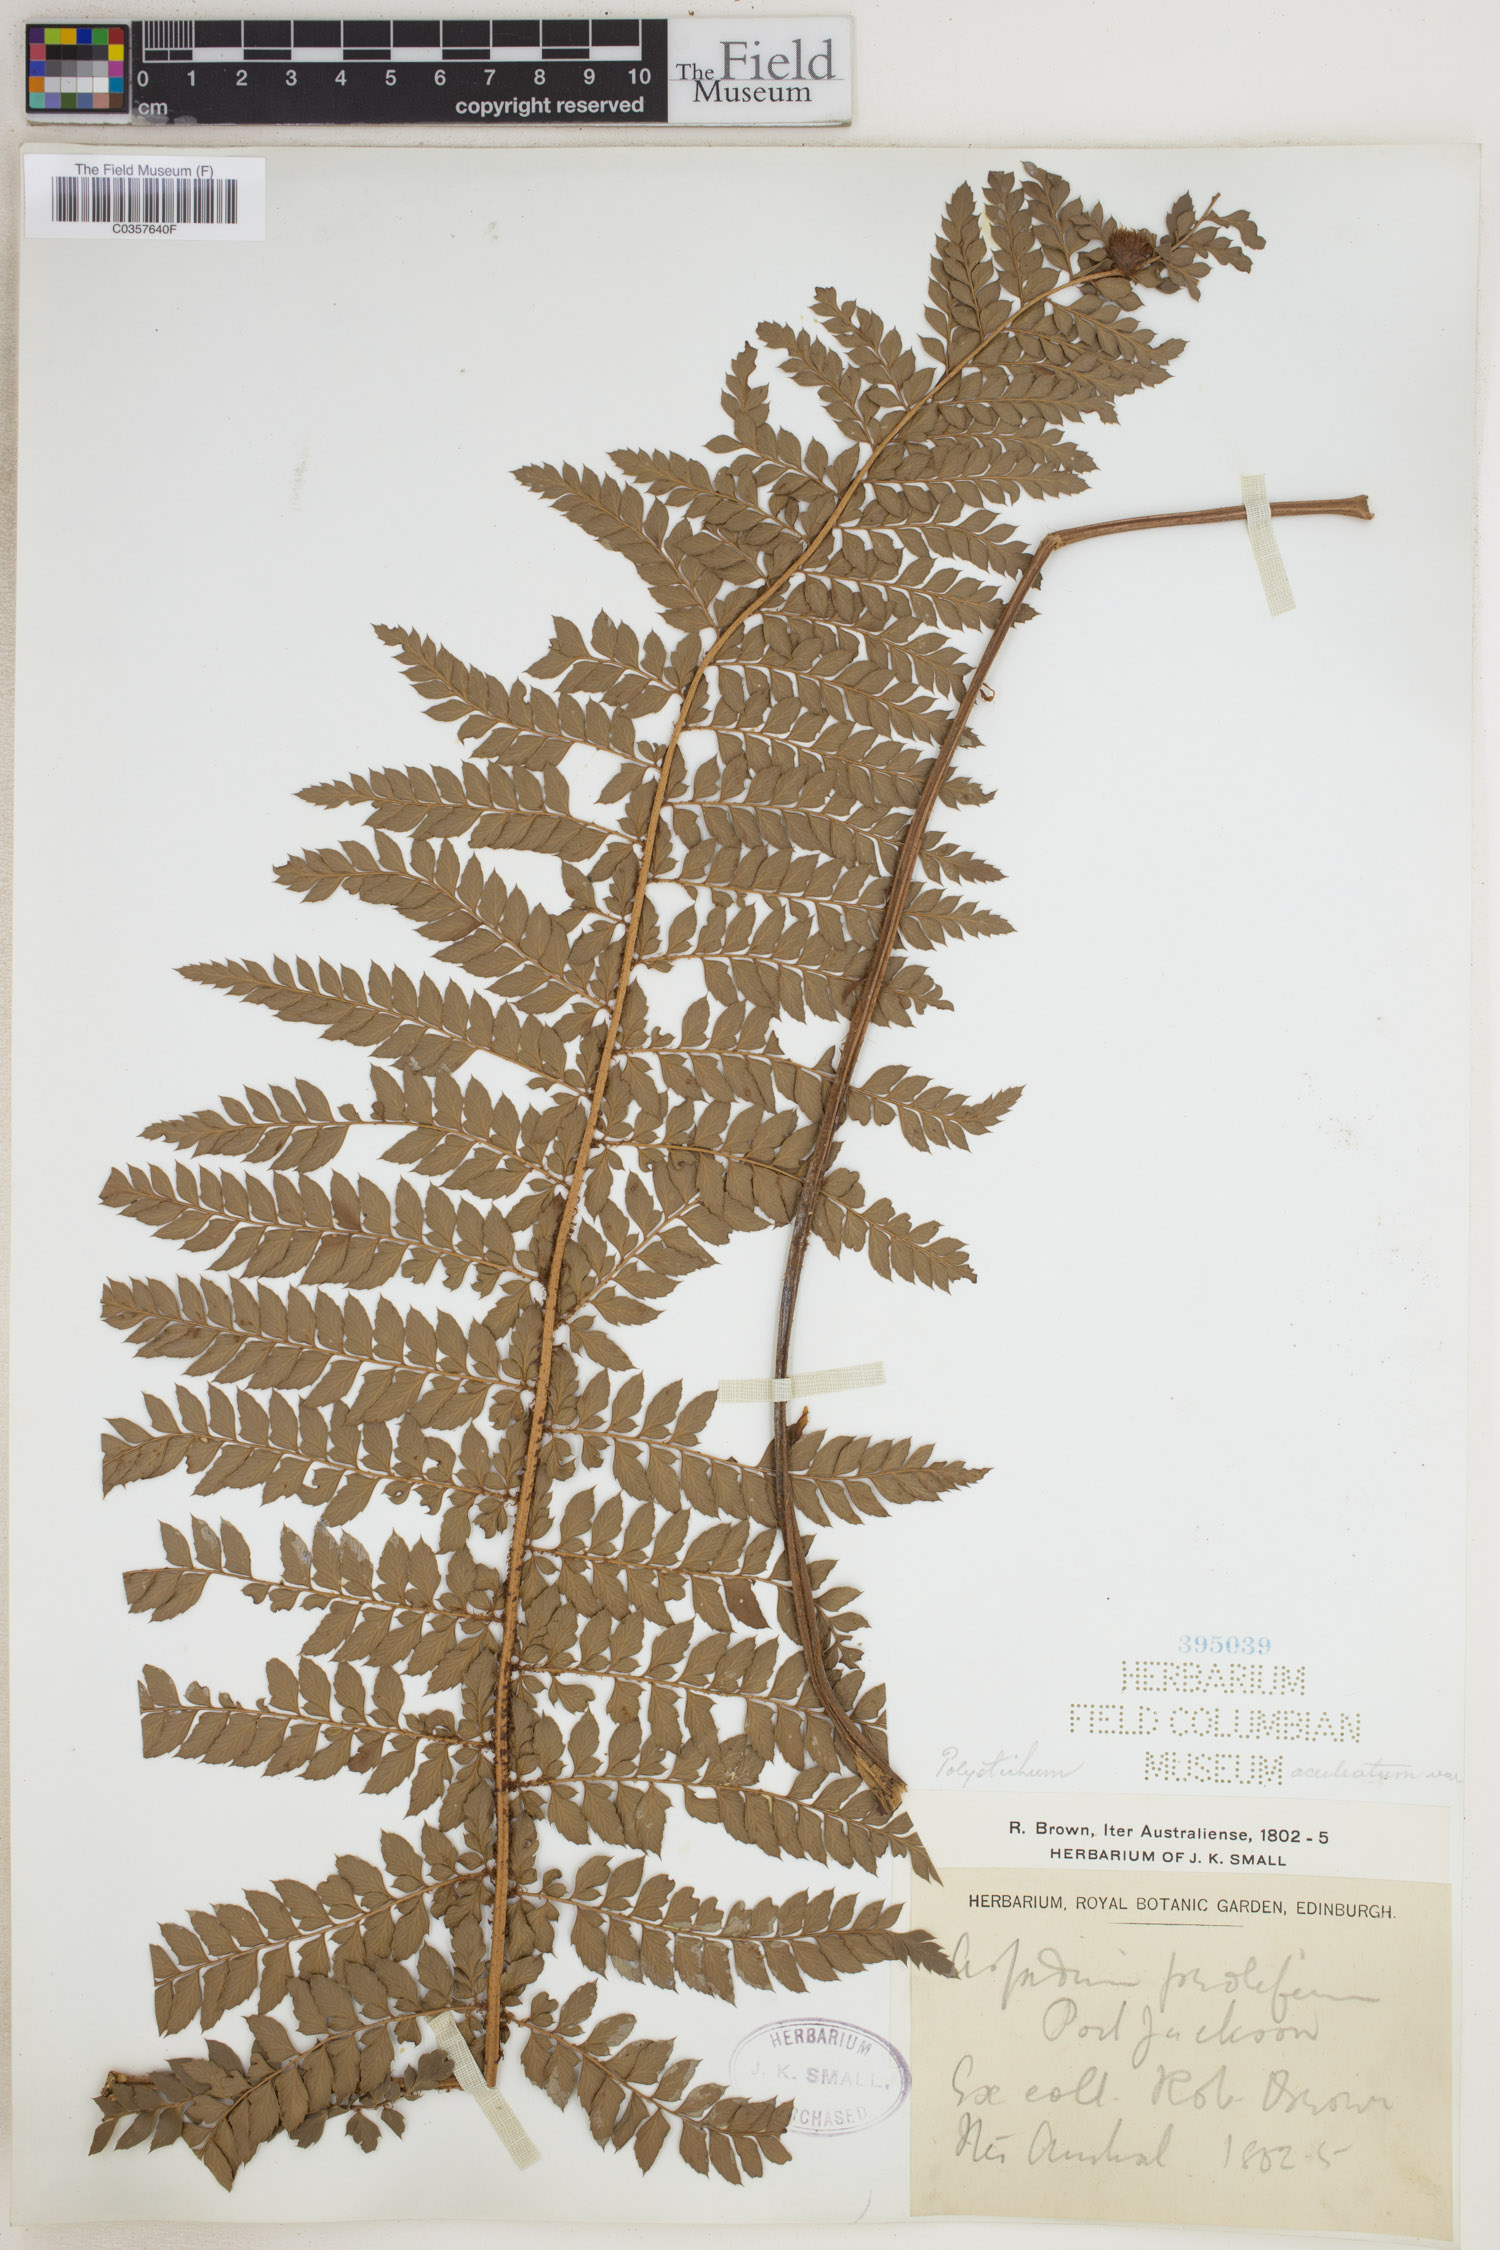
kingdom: Plantae
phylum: Tracheophyta
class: Polypodiopsida
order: Polypodiales
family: Dryopteridaceae
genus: Polystichum
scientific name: Polystichum aculeatum
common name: Hard shield-fern
